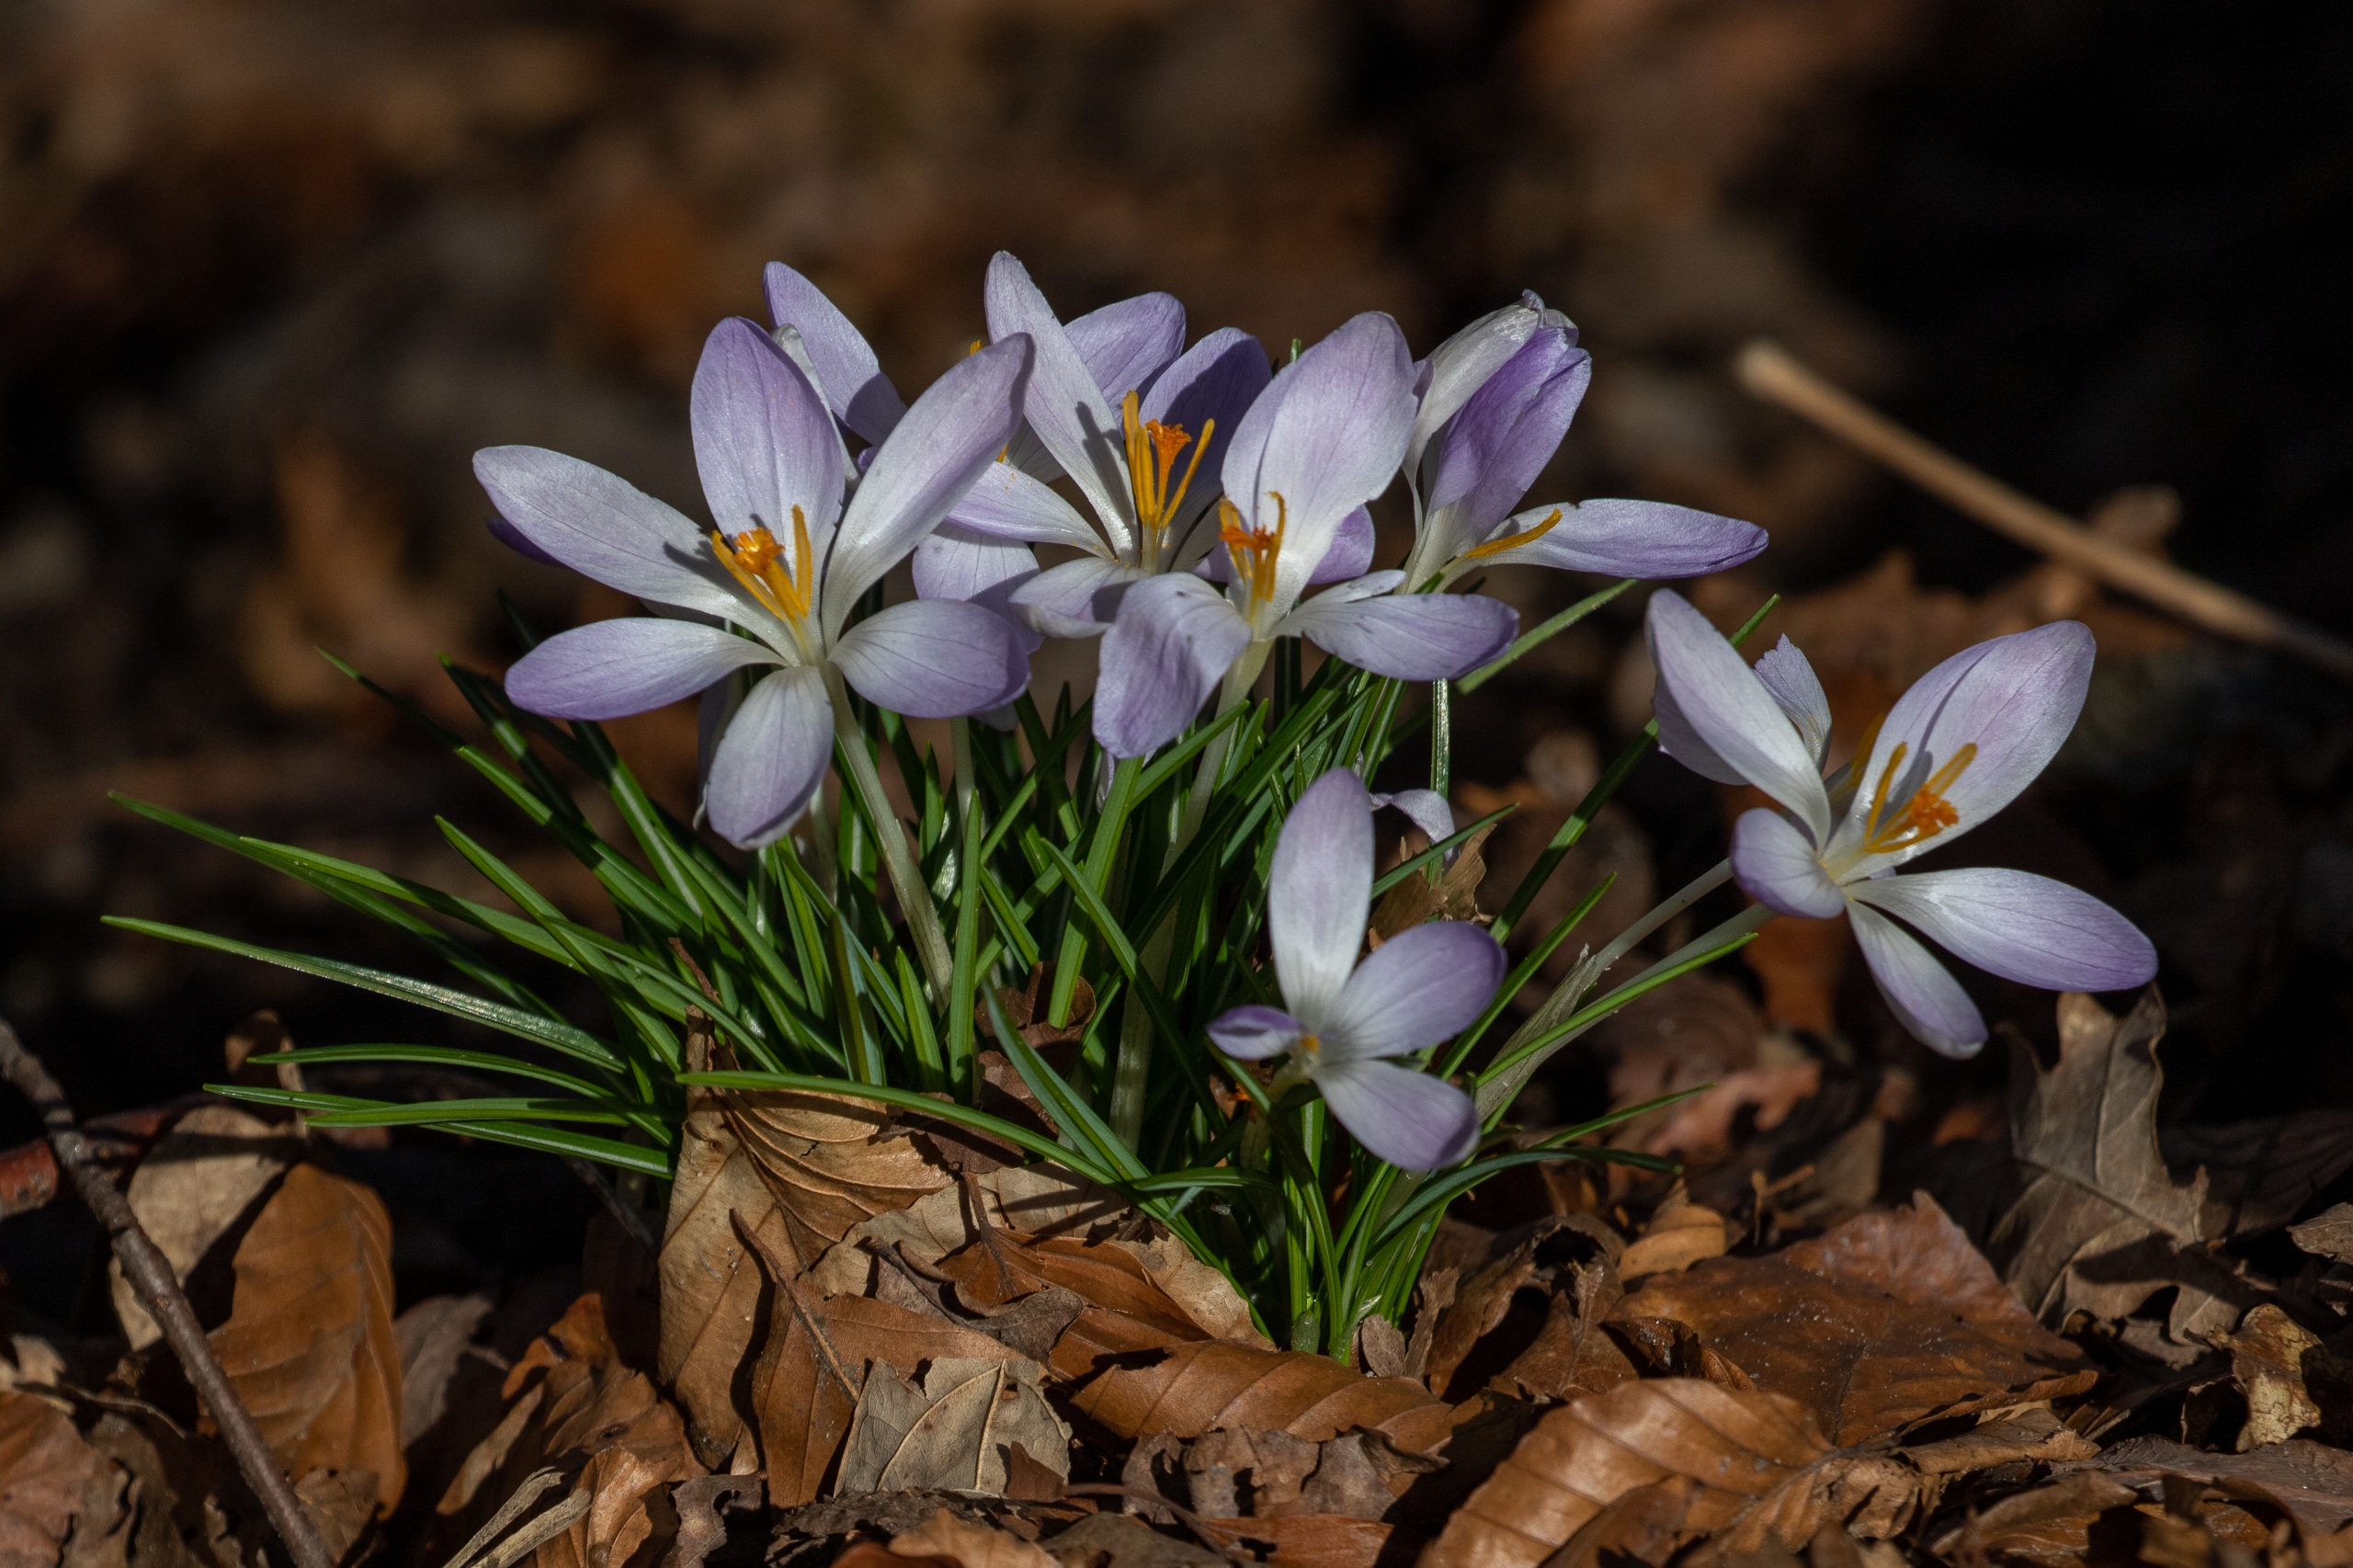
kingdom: Plantae
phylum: Tracheophyta
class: Liliopsida
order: Asparagales
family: Iridaceae
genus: Crocus
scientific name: Crocus tommasinianus
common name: Sne-krokus
